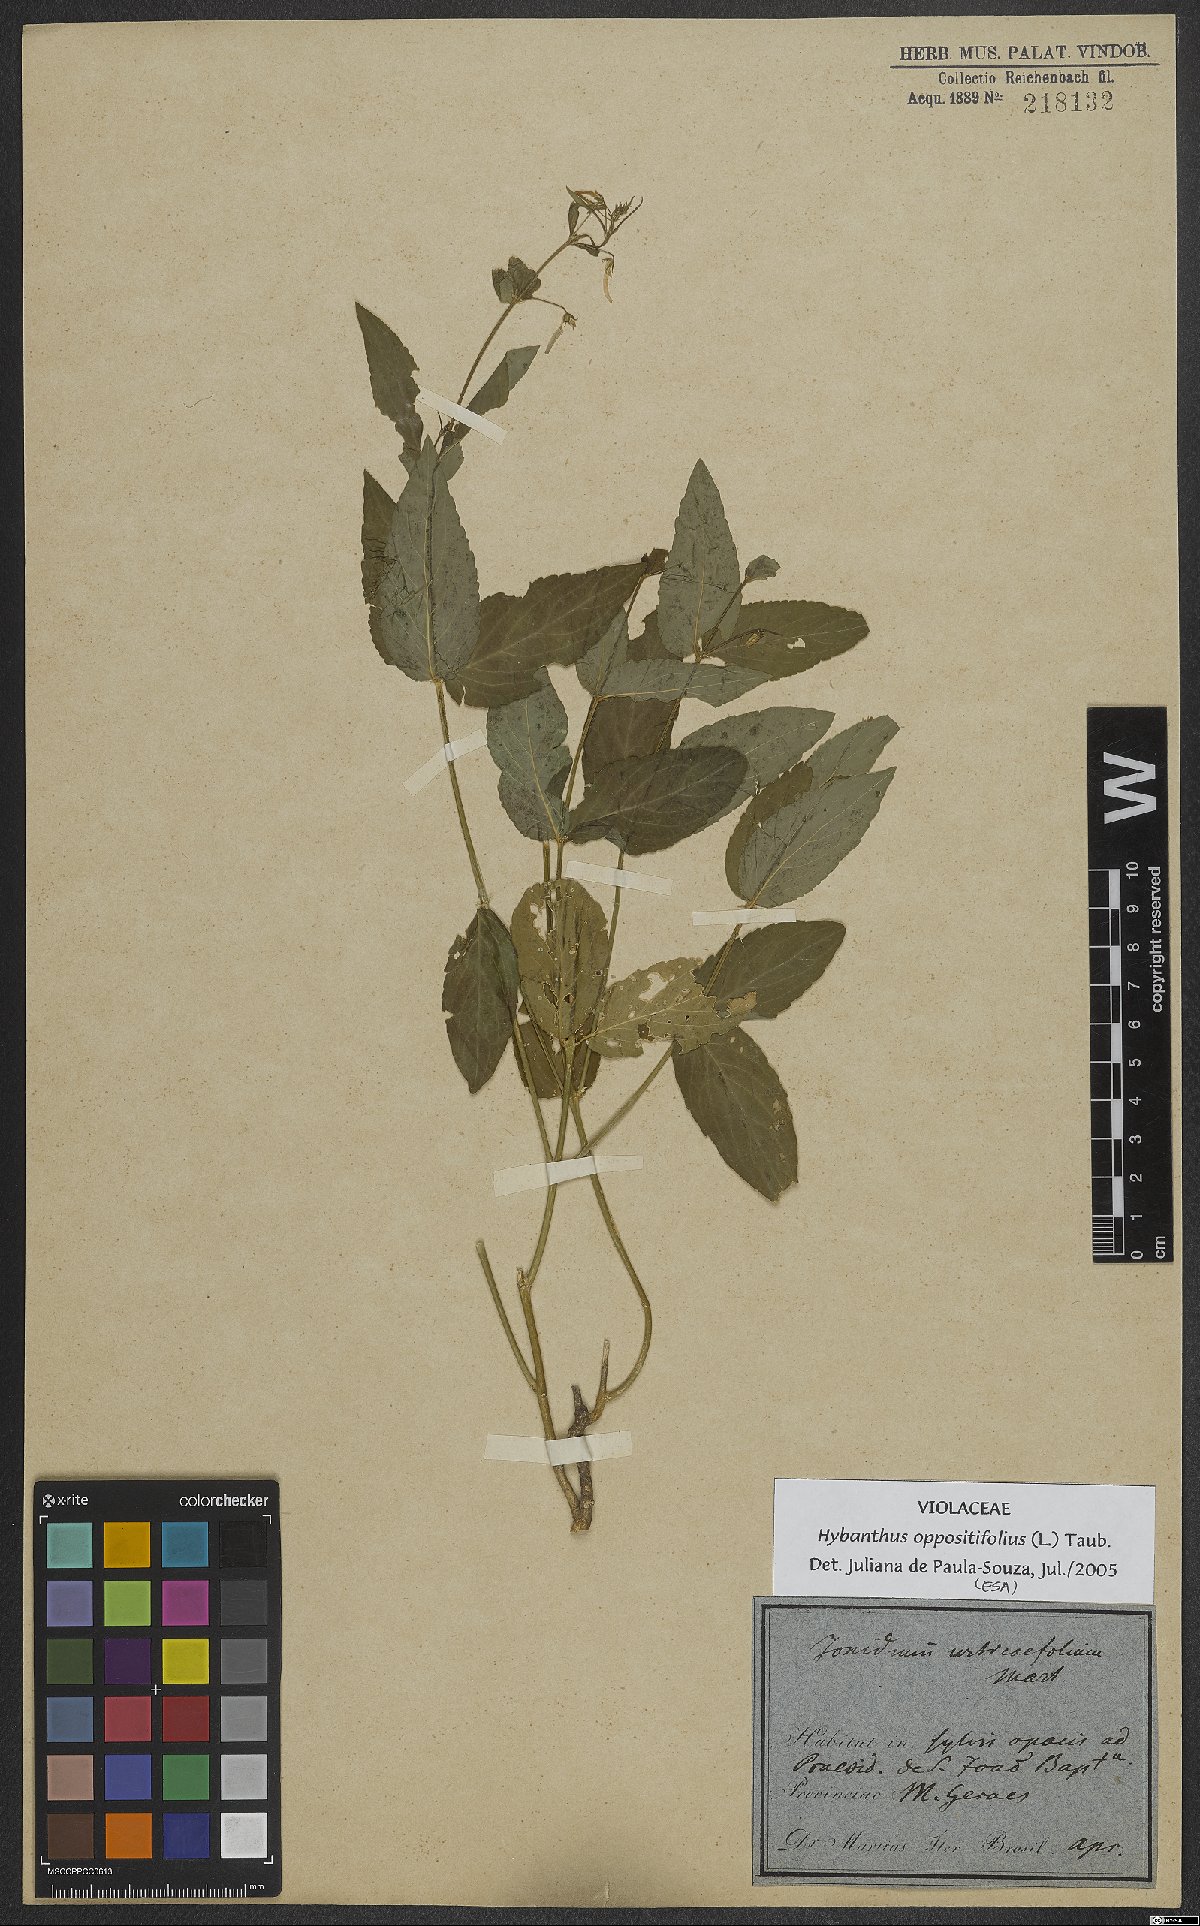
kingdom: Plantae
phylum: Tracheophyta
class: Magnoliopsida
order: Malpighiales
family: Violaceae
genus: Pombalia
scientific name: Pombalia oppositifolia
